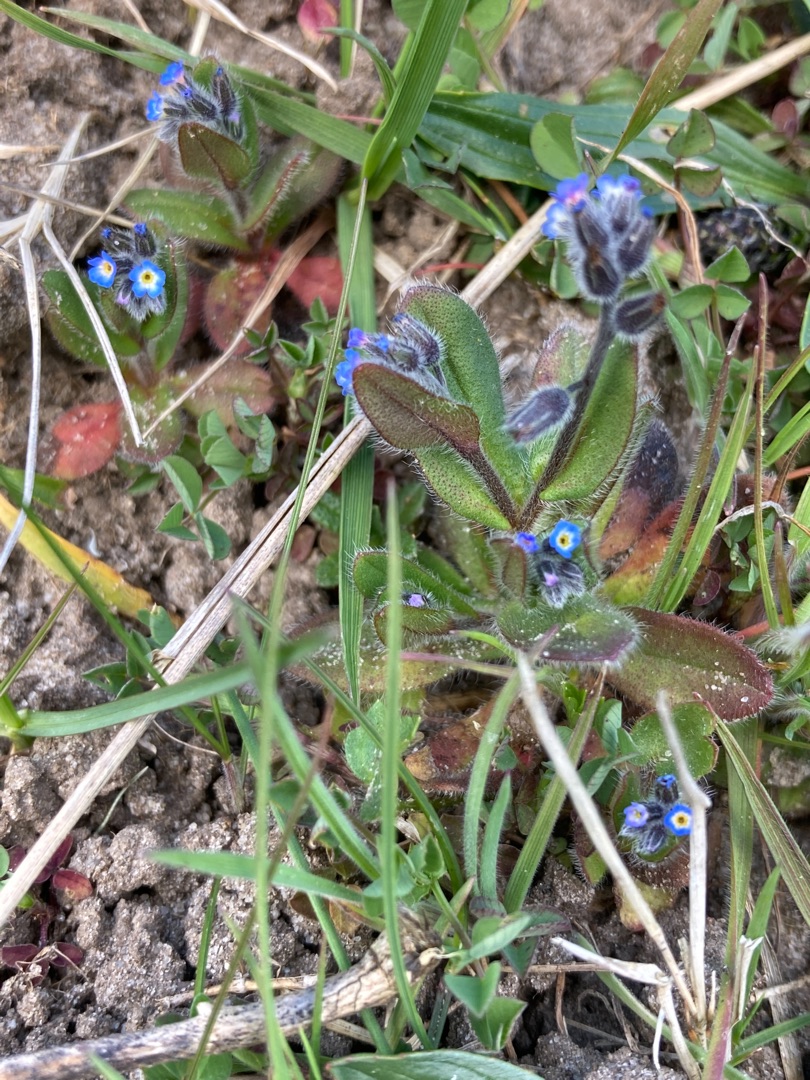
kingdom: Plantae
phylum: Tracheophyta
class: Magnoliopsida
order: Boraginales
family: Boraginaceae
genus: Myosotis
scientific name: Myosotis ramosissima
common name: Bakke-forglemmigej
